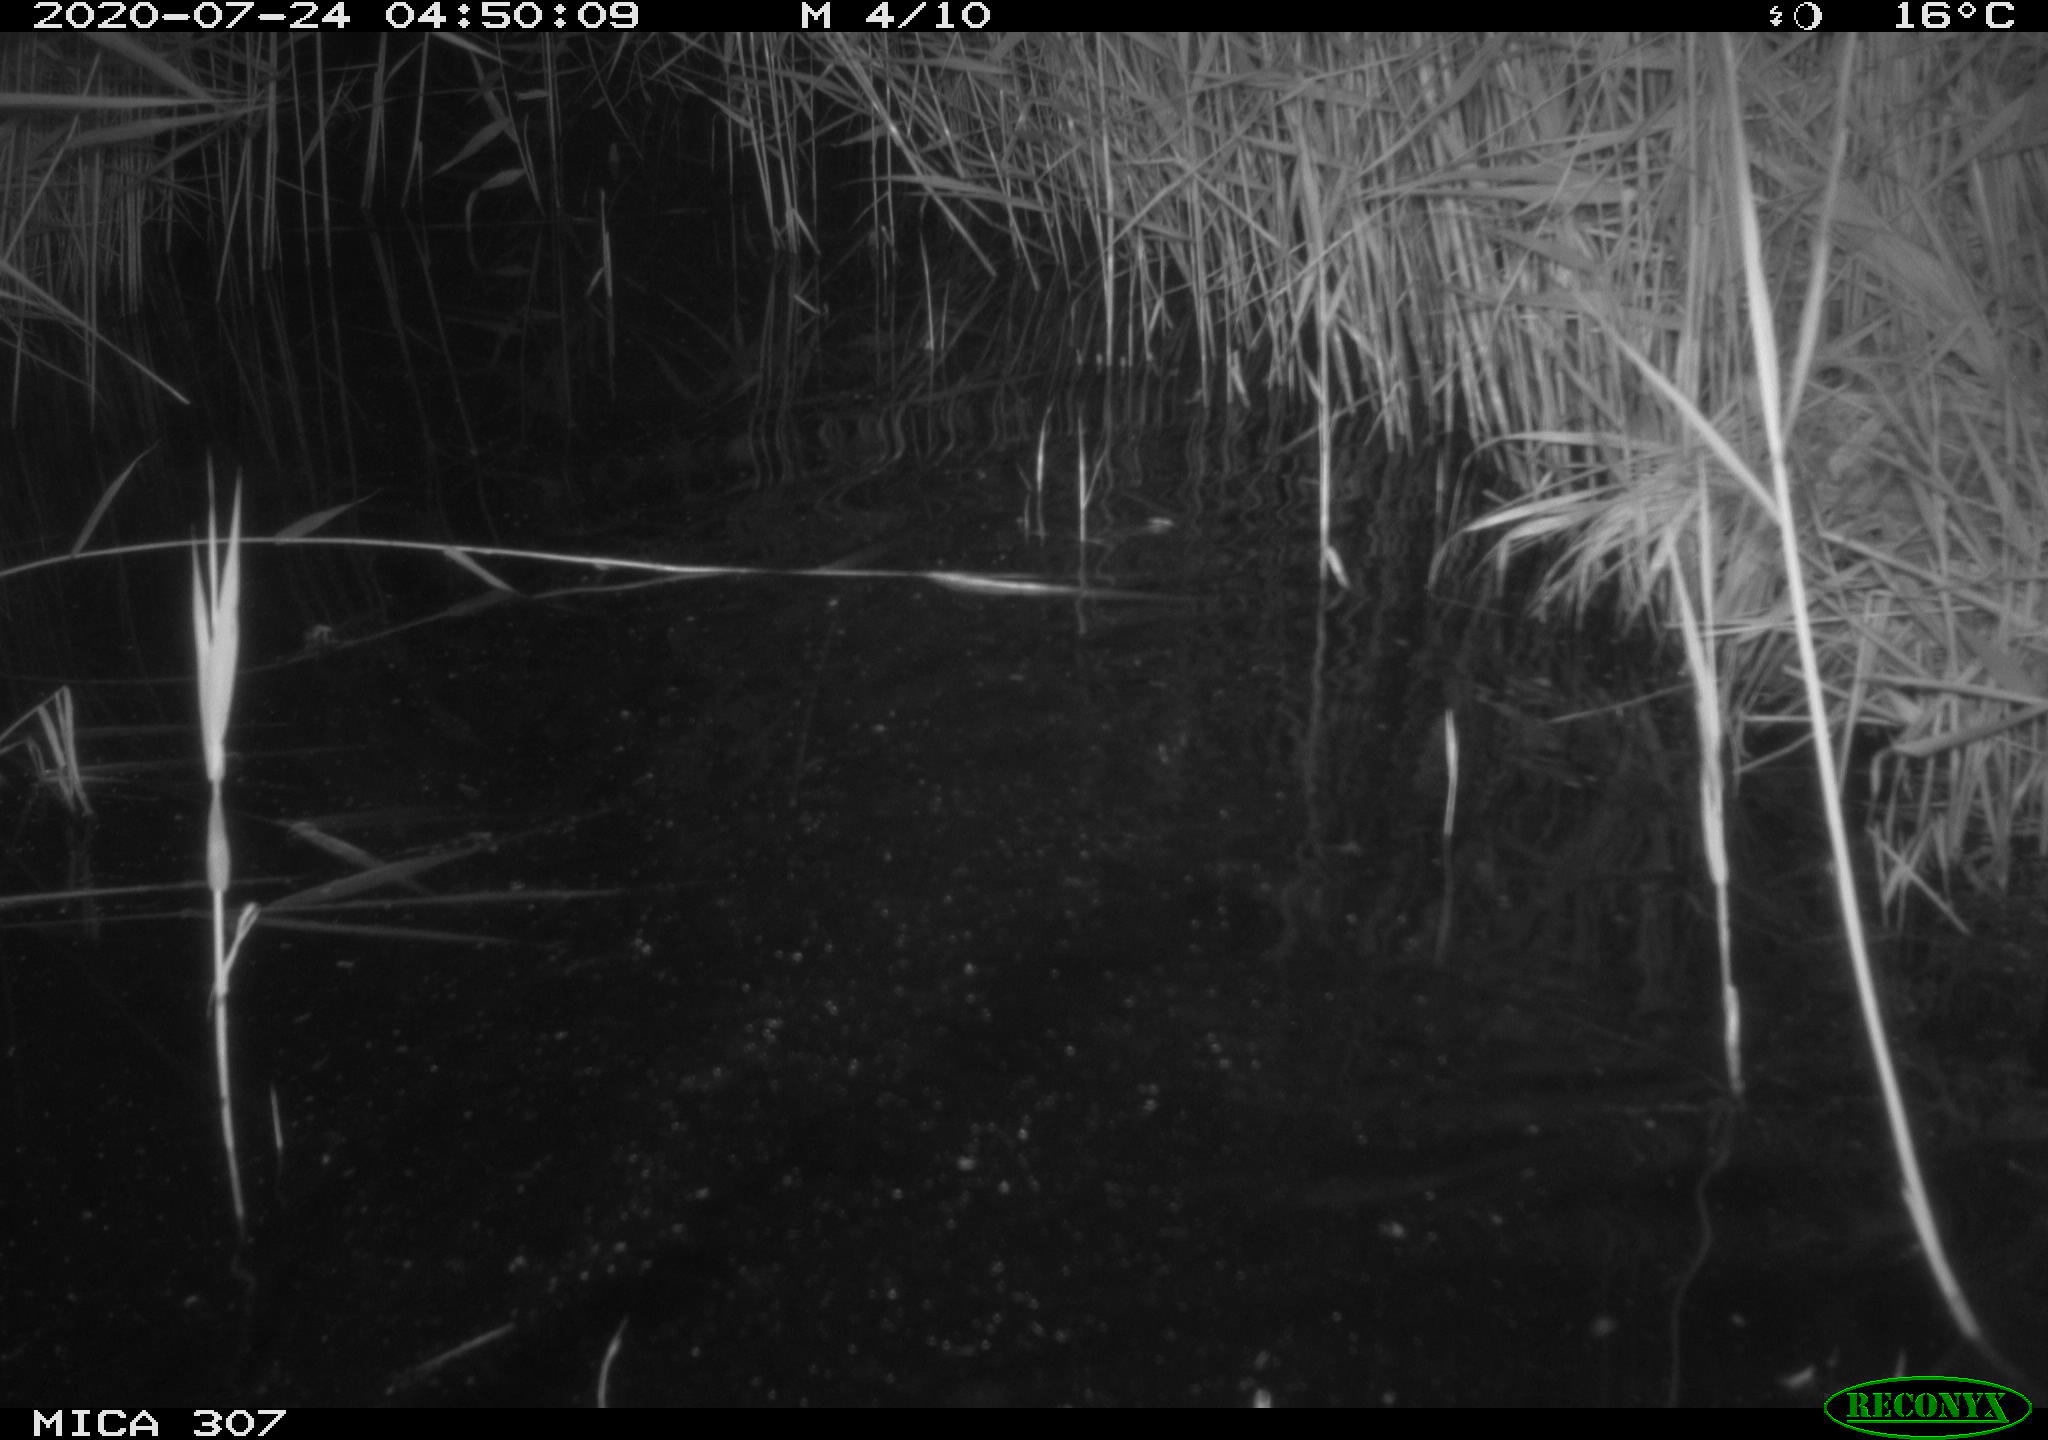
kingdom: Animalia
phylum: Chordata
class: Mammalia
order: Rodentia
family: Muridae
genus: Rattus
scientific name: Rattus norvegicus
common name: Brown rat
